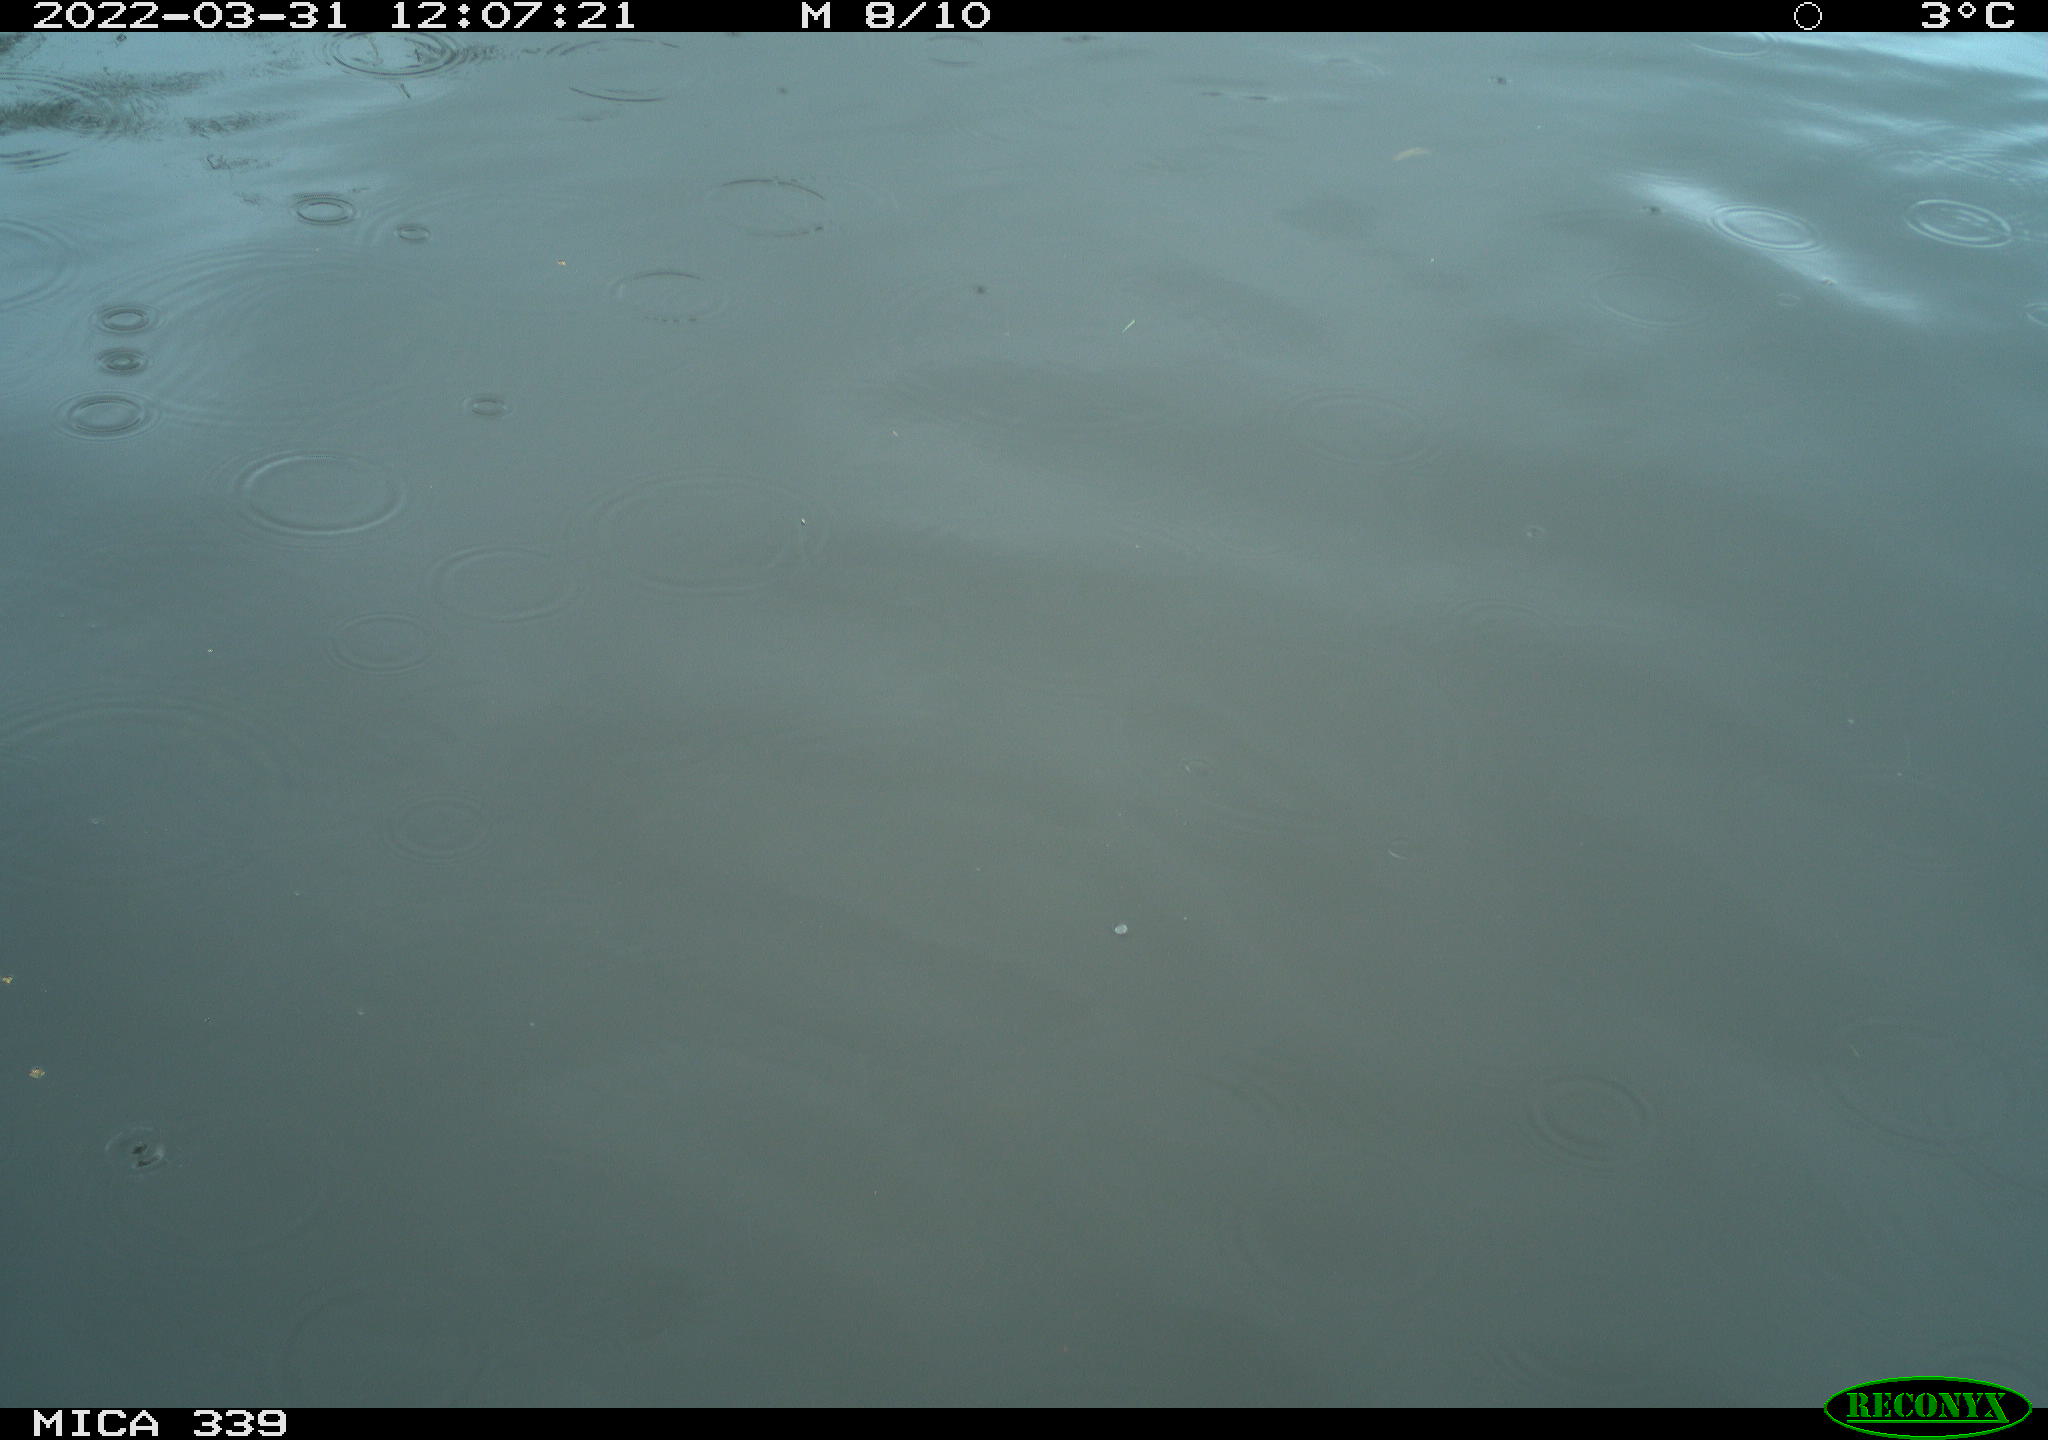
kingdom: Animalia
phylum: Chordata
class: Aves
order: Anseriformes
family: Anatidae
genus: Anas
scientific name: Anas platyrhynchos
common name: Mallard
